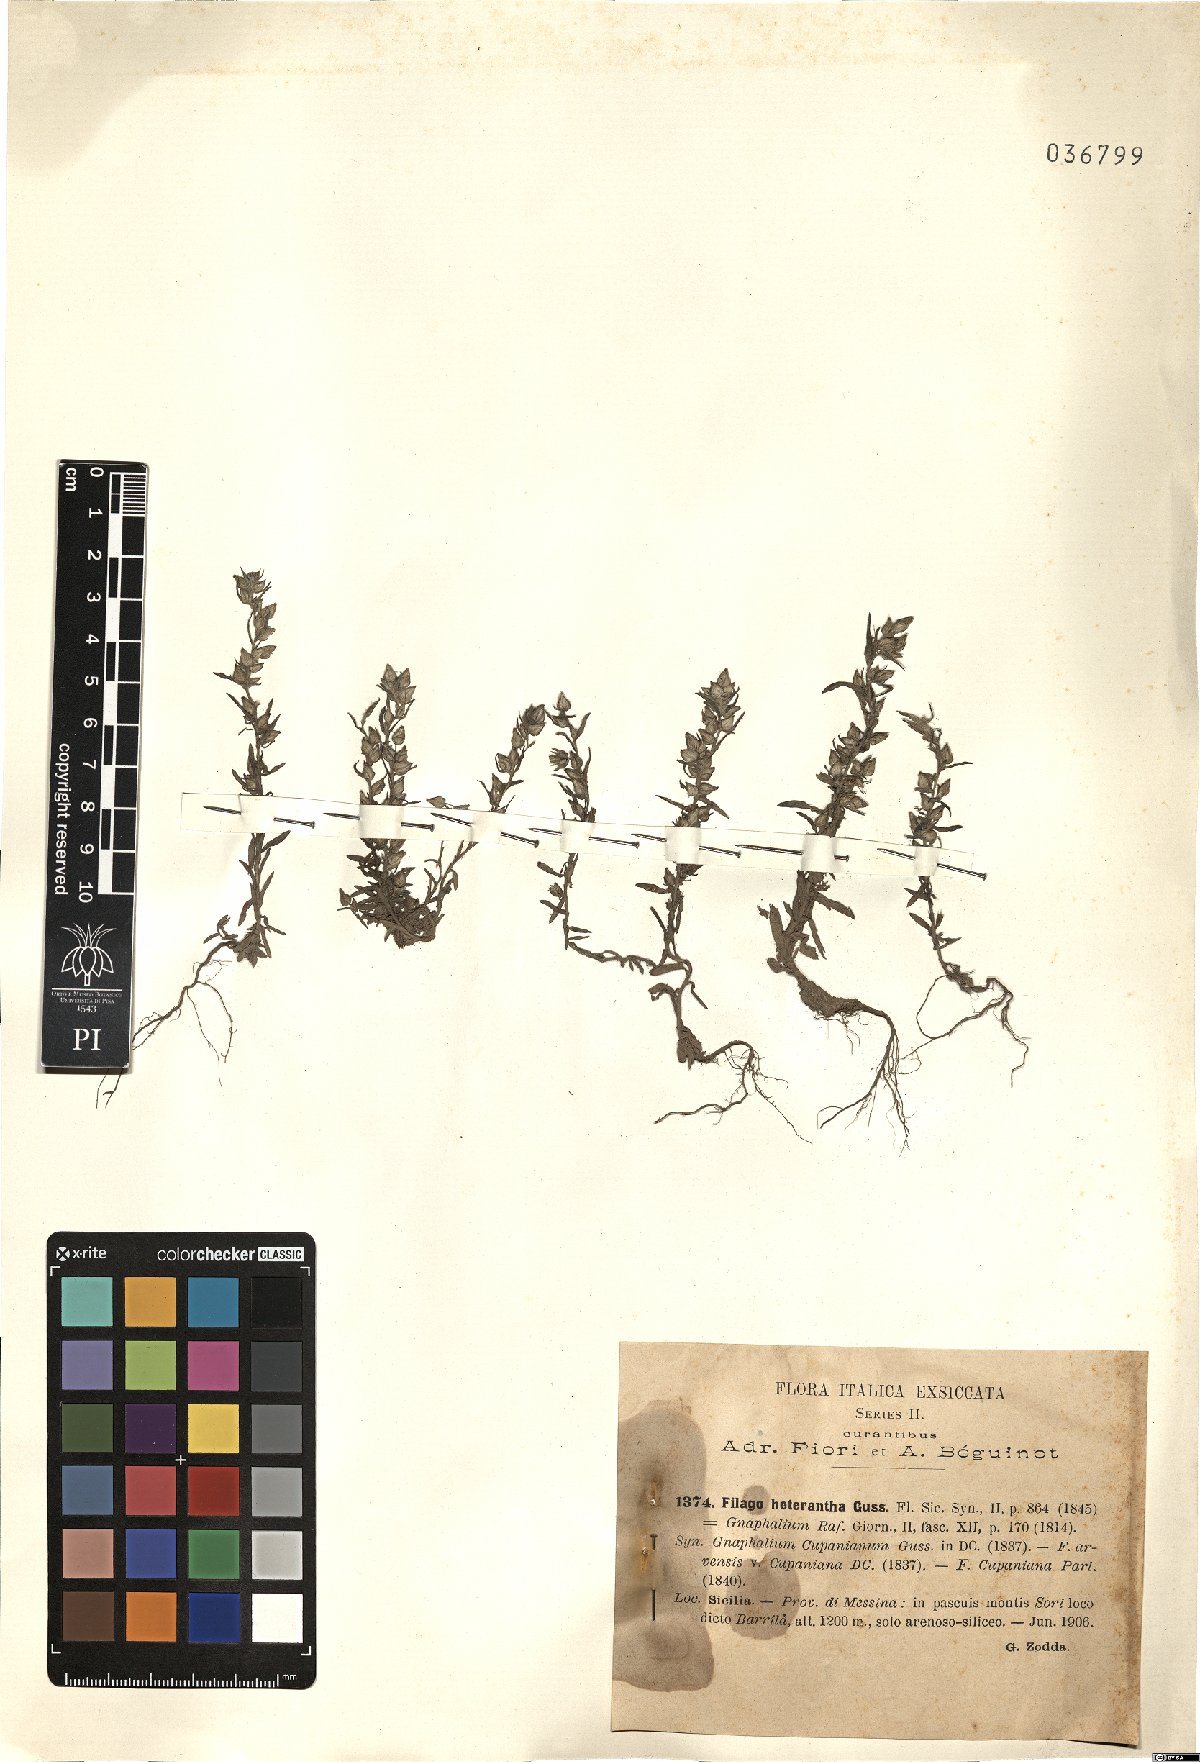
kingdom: Plantae
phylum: Tracheophyta
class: Magnoliopsida
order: Asterales
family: Asteraceae
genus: Logfia
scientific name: Logfia heterantha
